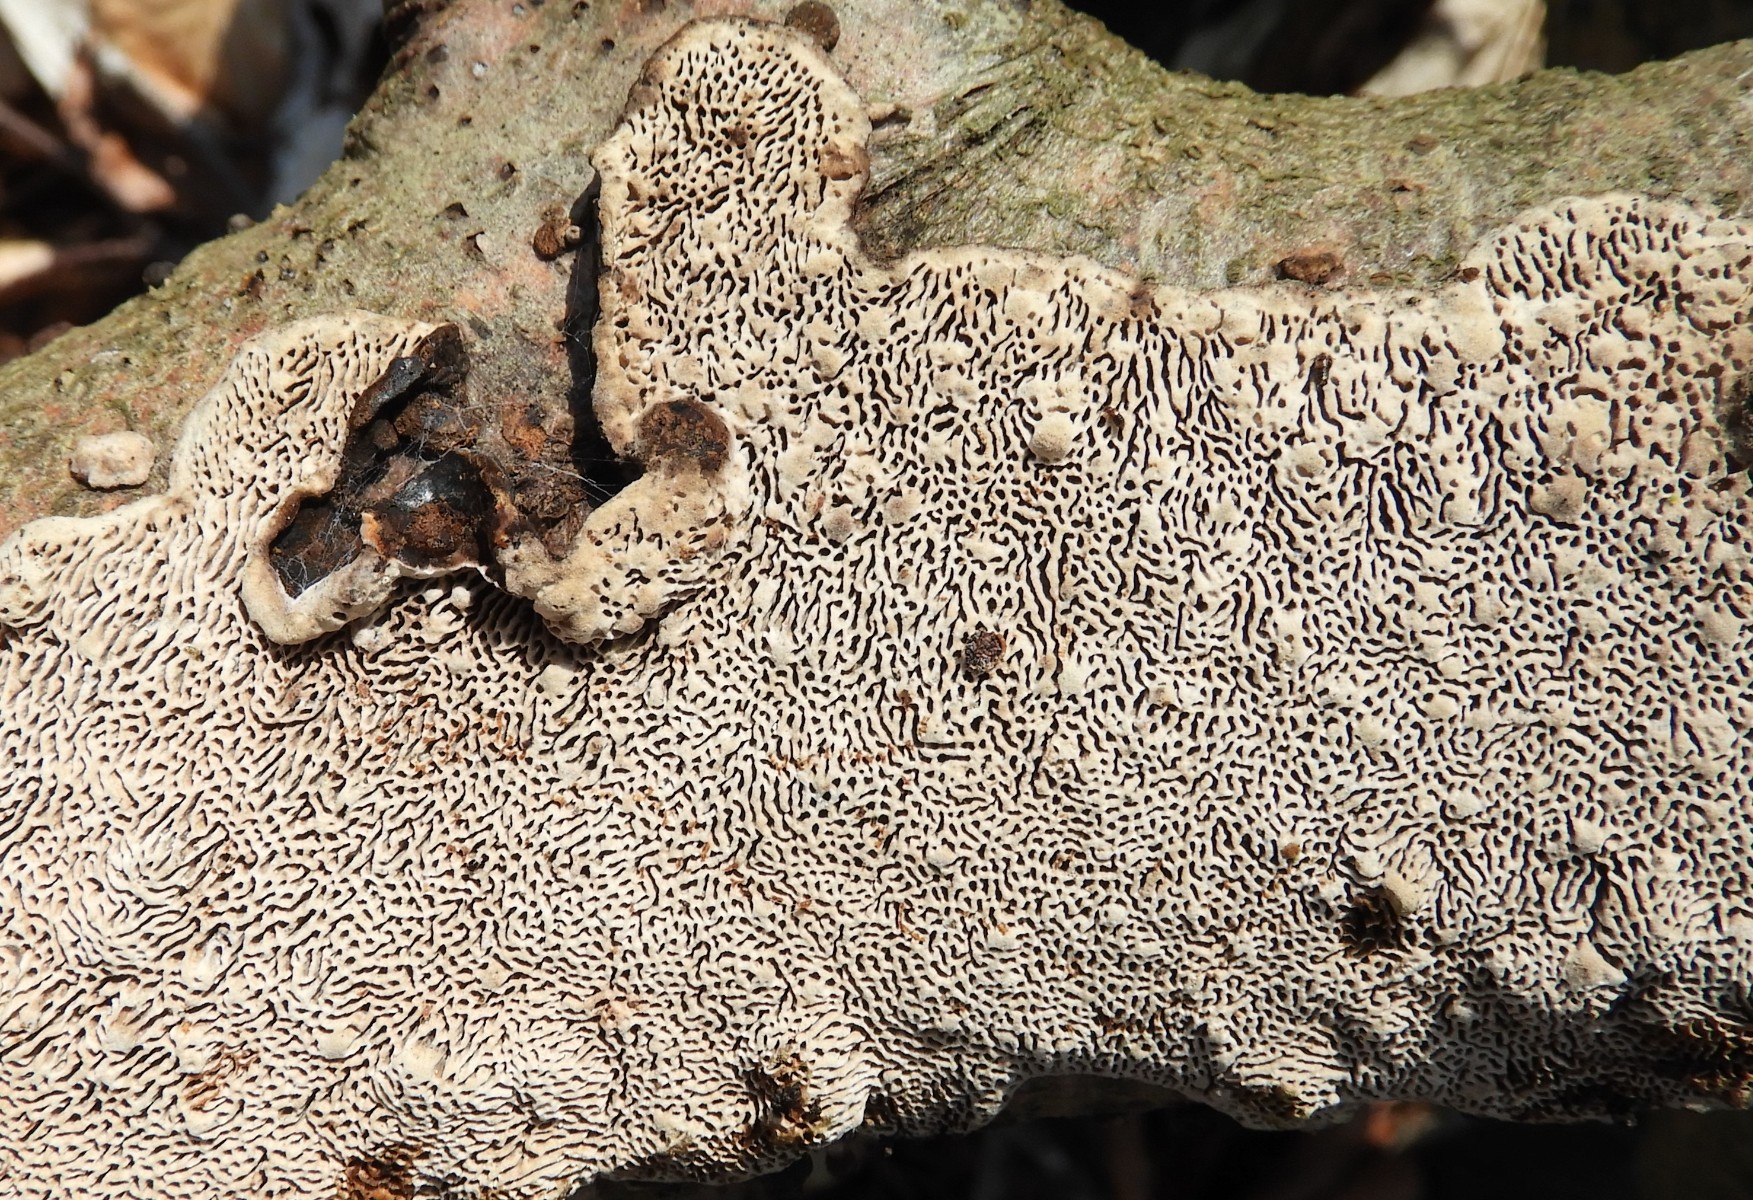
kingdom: Fungi
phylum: Basidiomycota
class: Agaricomycetes
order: Polyporales
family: Polyporaceae
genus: Podofomes
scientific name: Podofomes mollis
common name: blød begporesvamp
